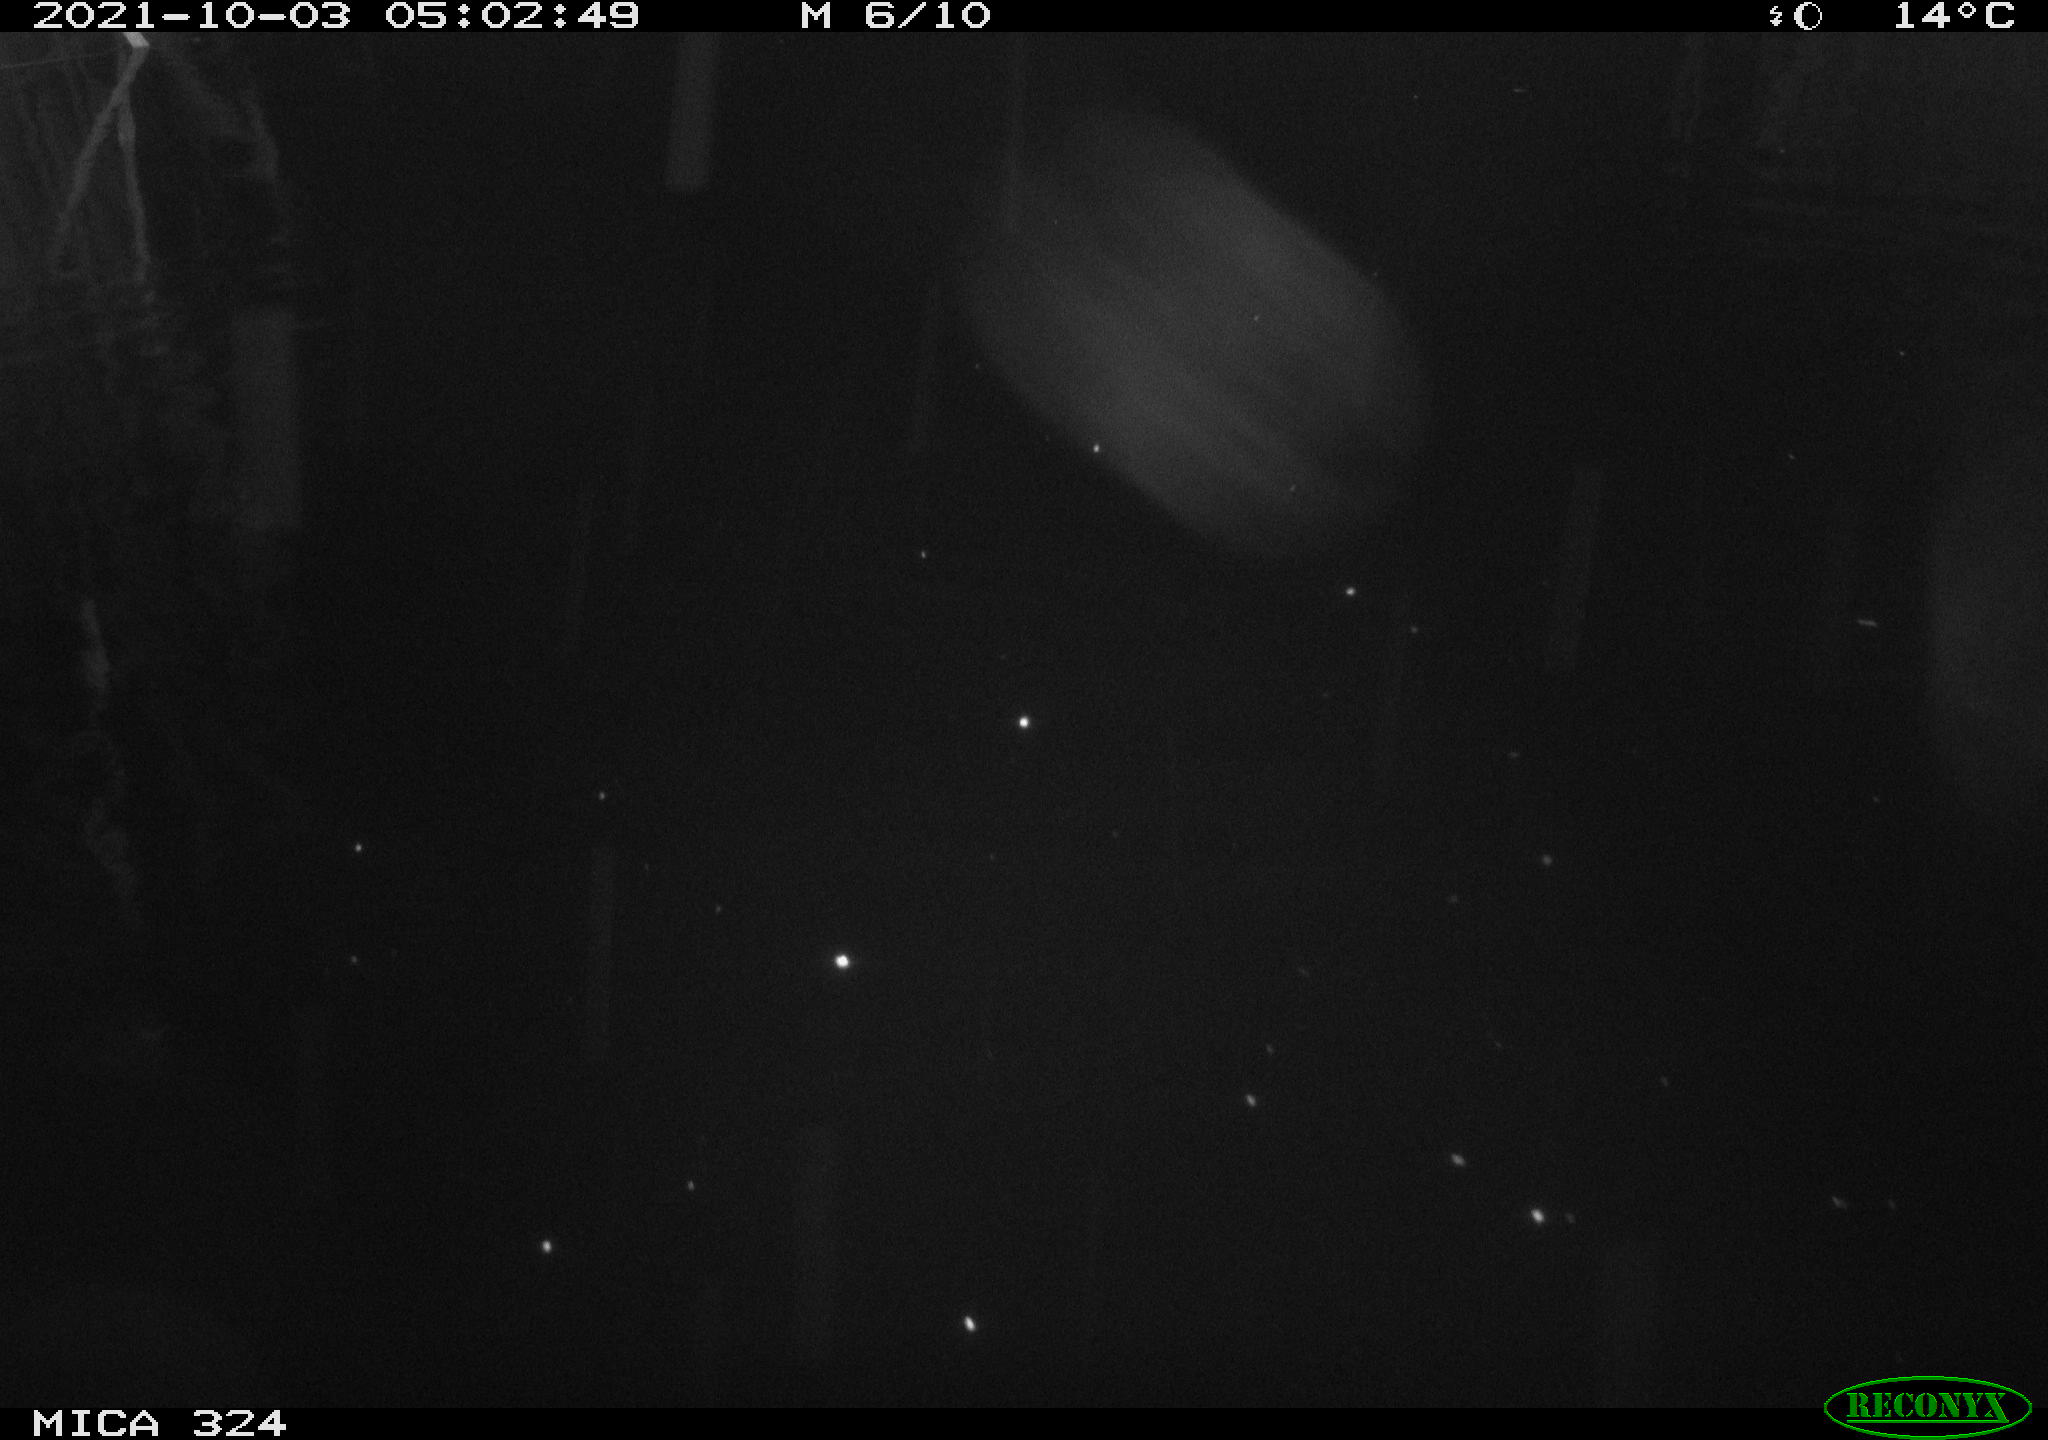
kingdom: Animalia
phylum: Chordata
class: Mammalia
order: Rodentia
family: Cricetidae
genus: Ondatra
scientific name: Ondatra zibethicus
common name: Muskrat
